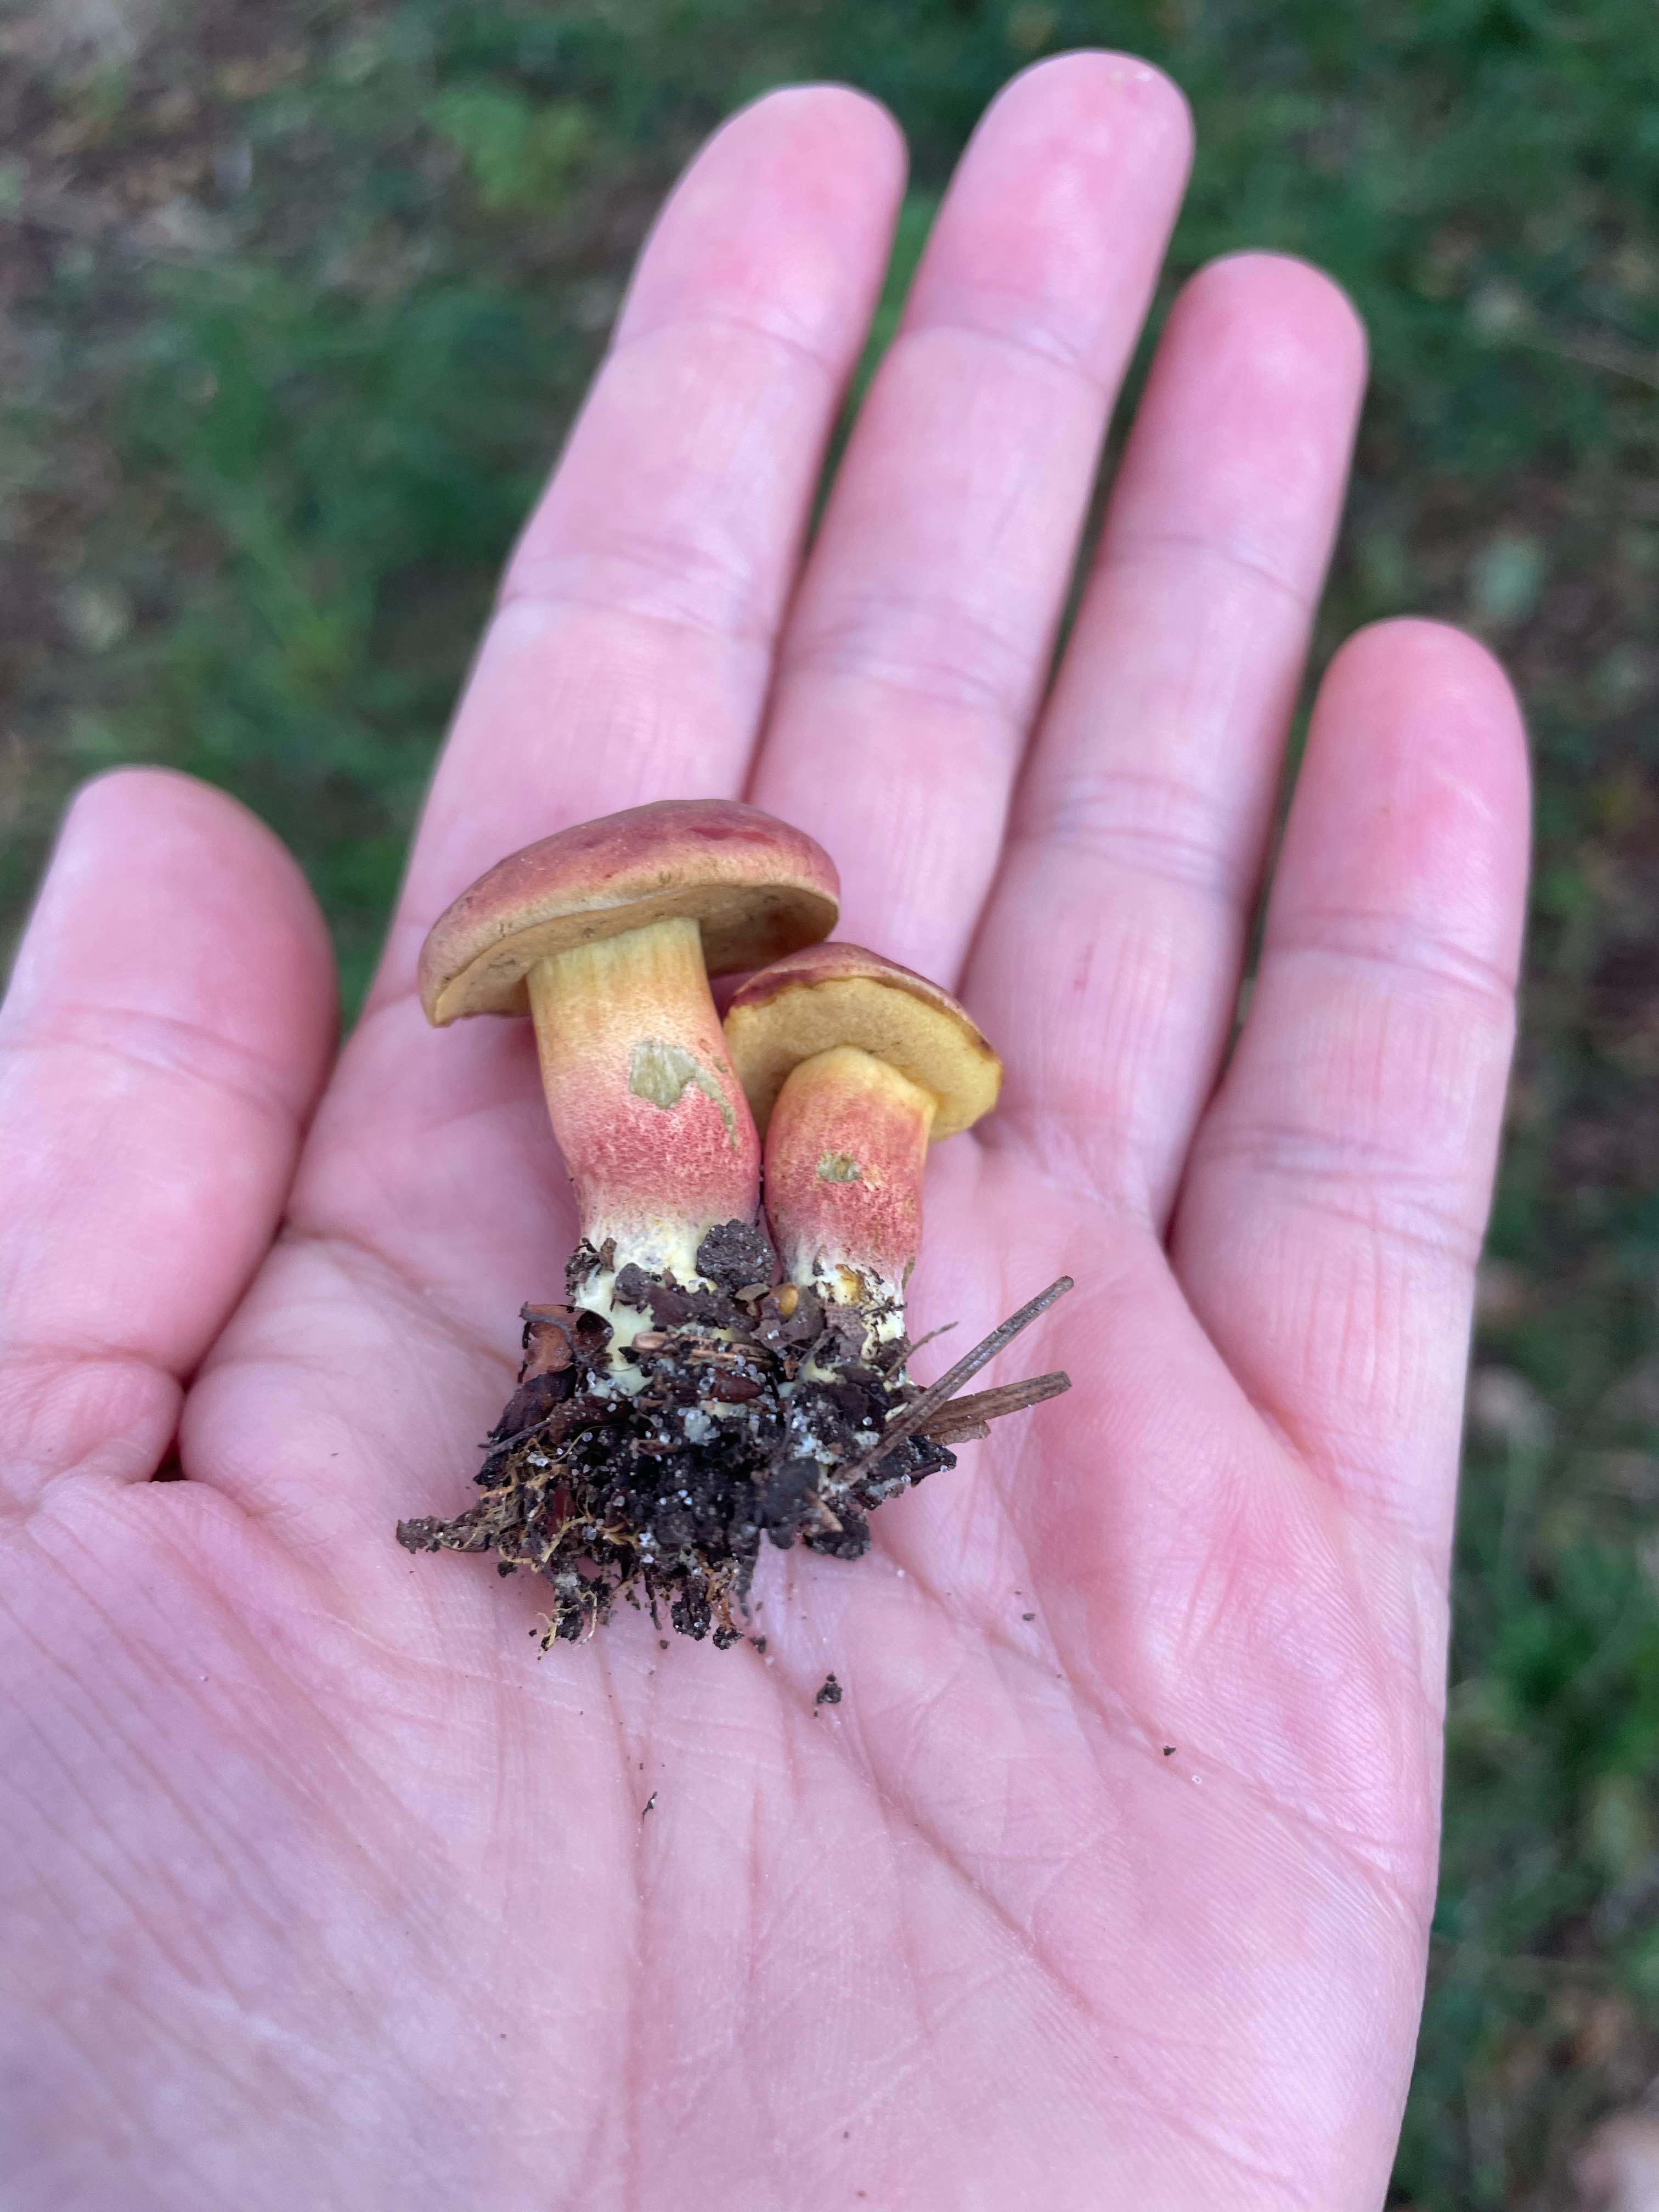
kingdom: Fungi
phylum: Basidiomycota
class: Agaricomycetes
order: Boletales
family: Boletaceae
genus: Hortiboletus
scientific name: Hortiboletus rubellus
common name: blodrød rørhat
